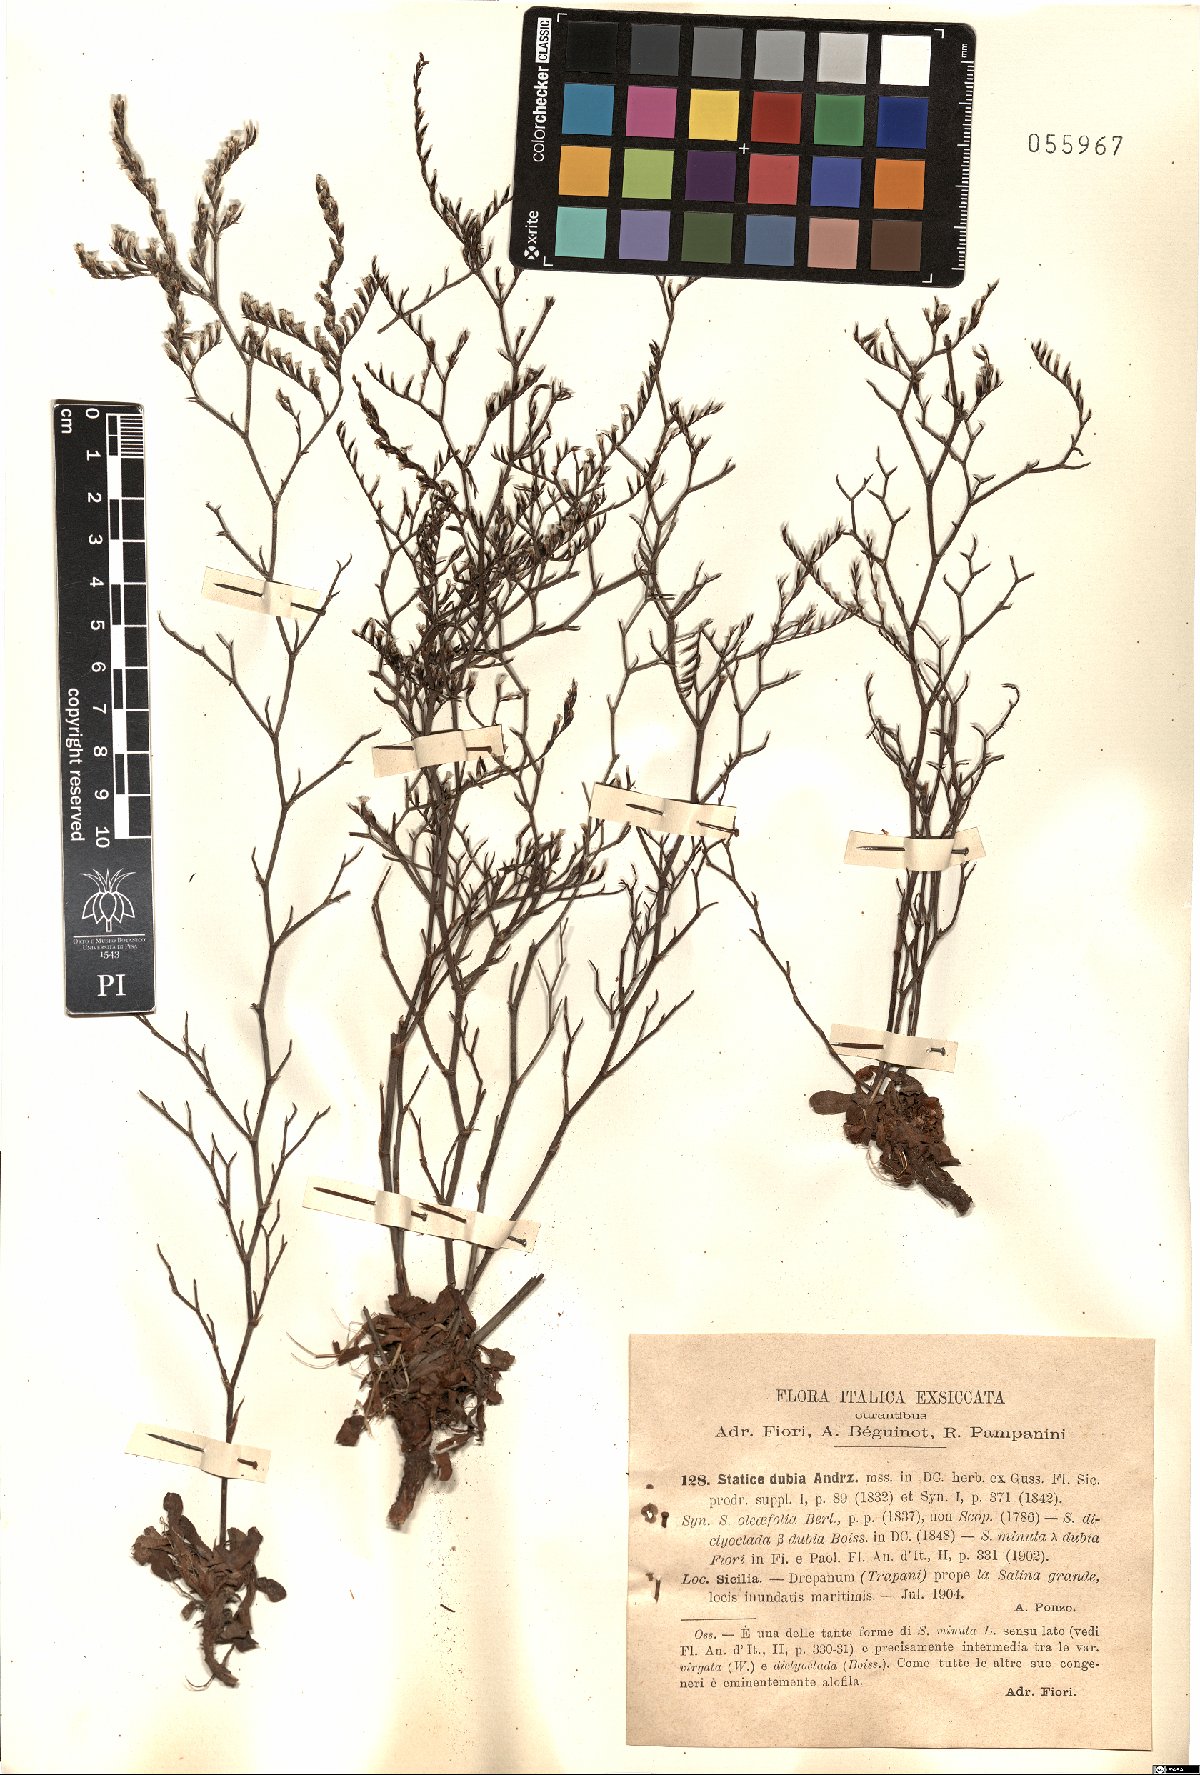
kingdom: Plantae
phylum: Tracheophyta
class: Magnoliopsida
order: Caryophyllales
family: Plumbaginaceae
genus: Limonium
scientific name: Limonium dubium
